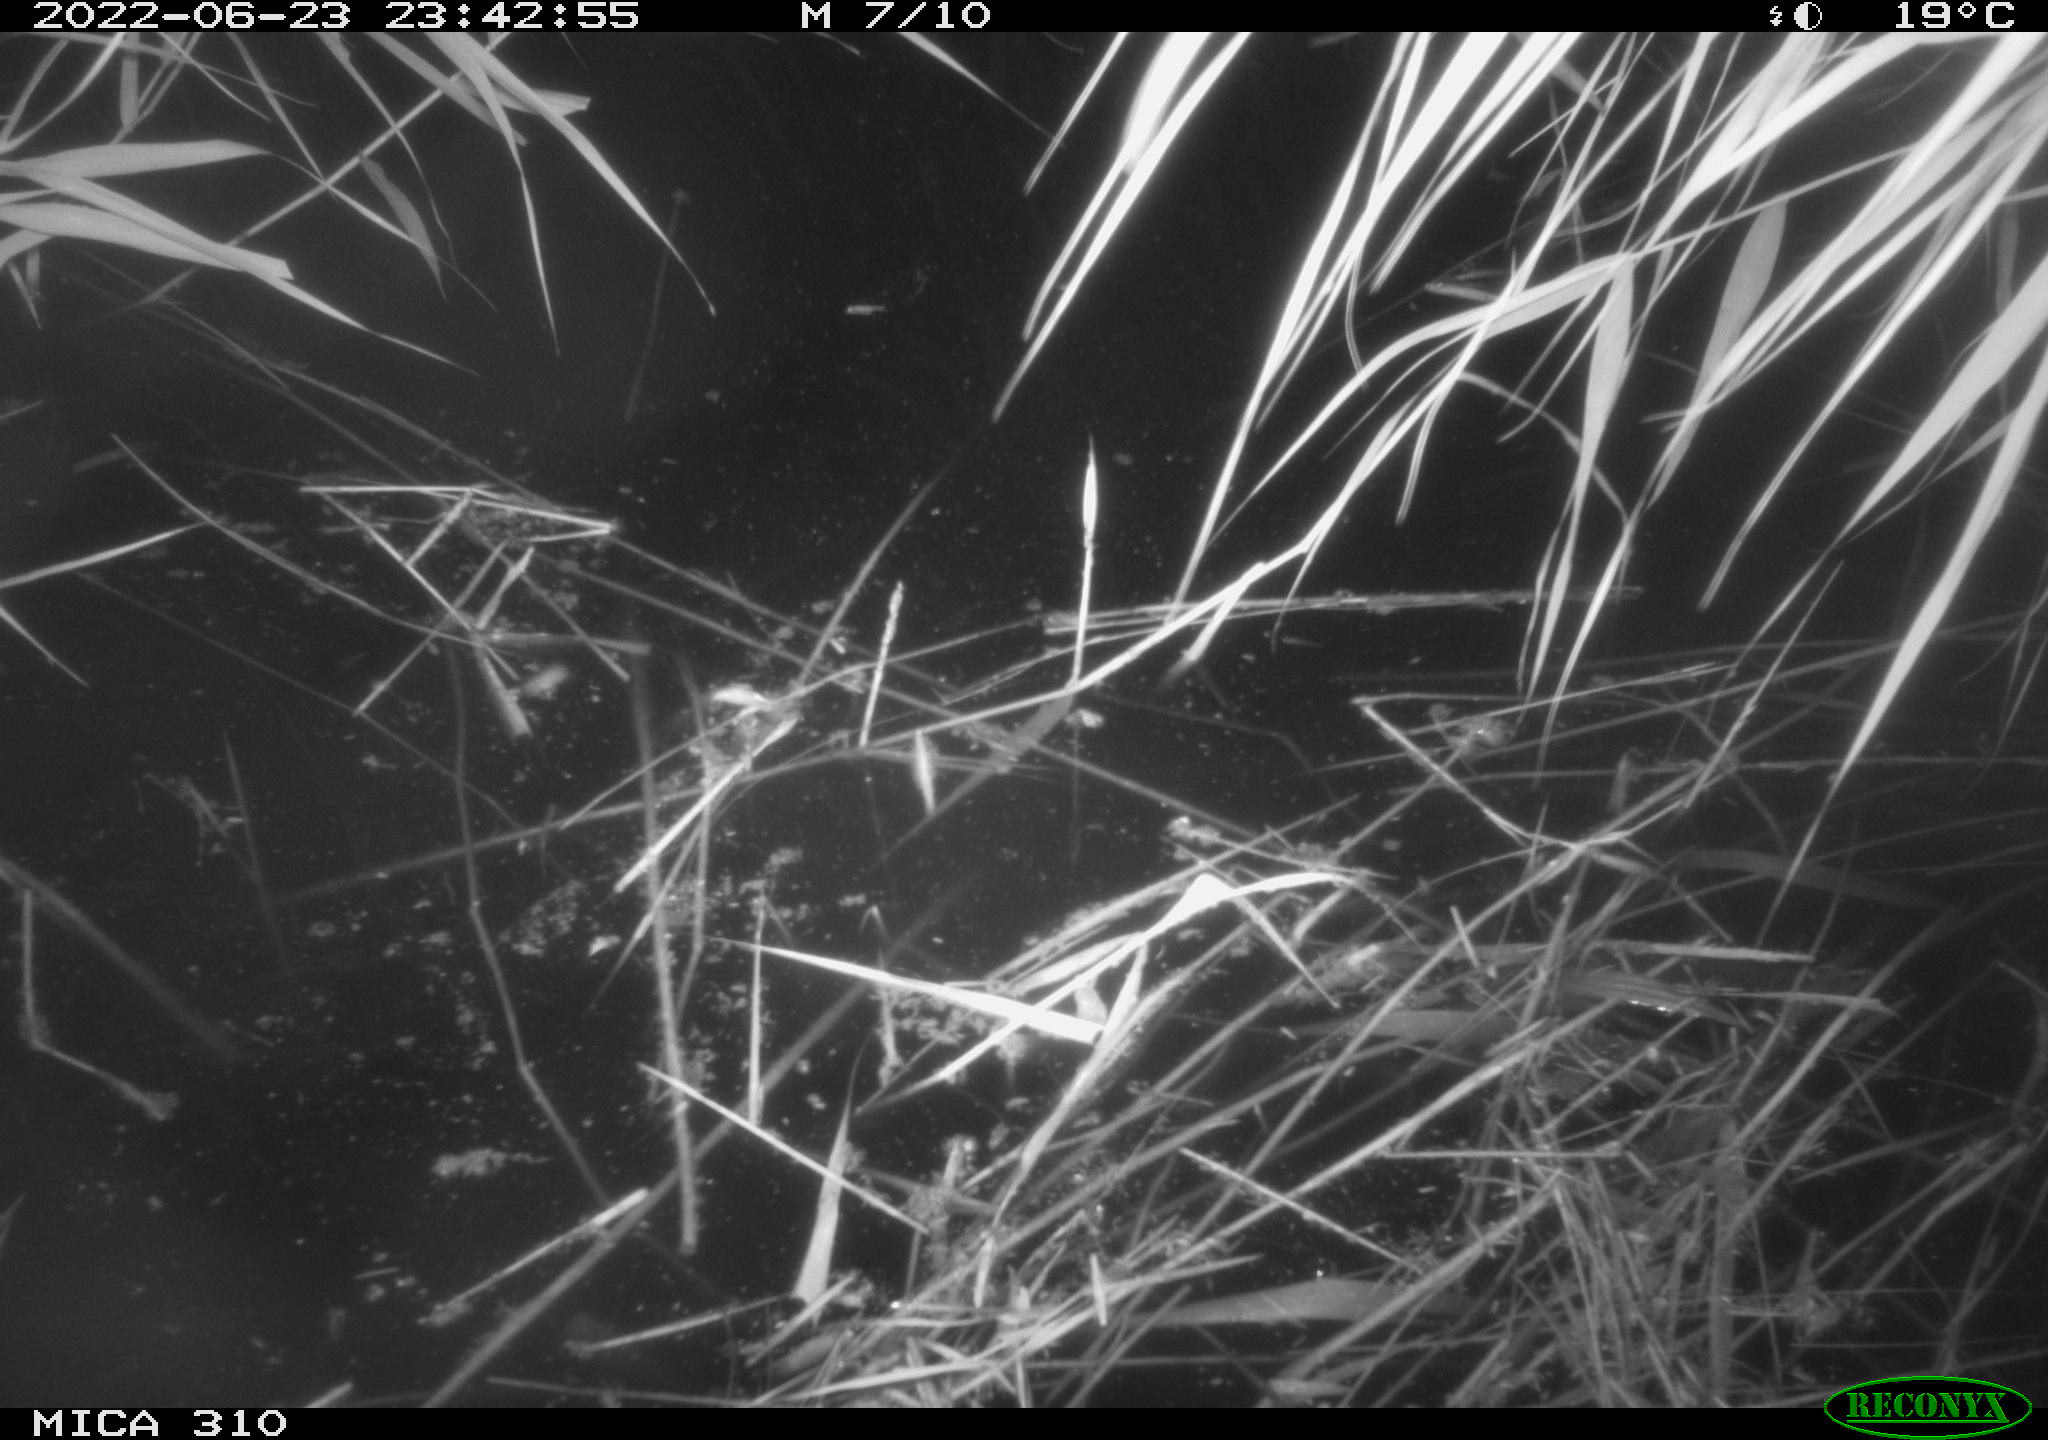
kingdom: Animalia
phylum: Chordata
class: Aves
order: Anseriformes
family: Anatidae
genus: Anas
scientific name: Anas platyrhynchos
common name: Mallard
